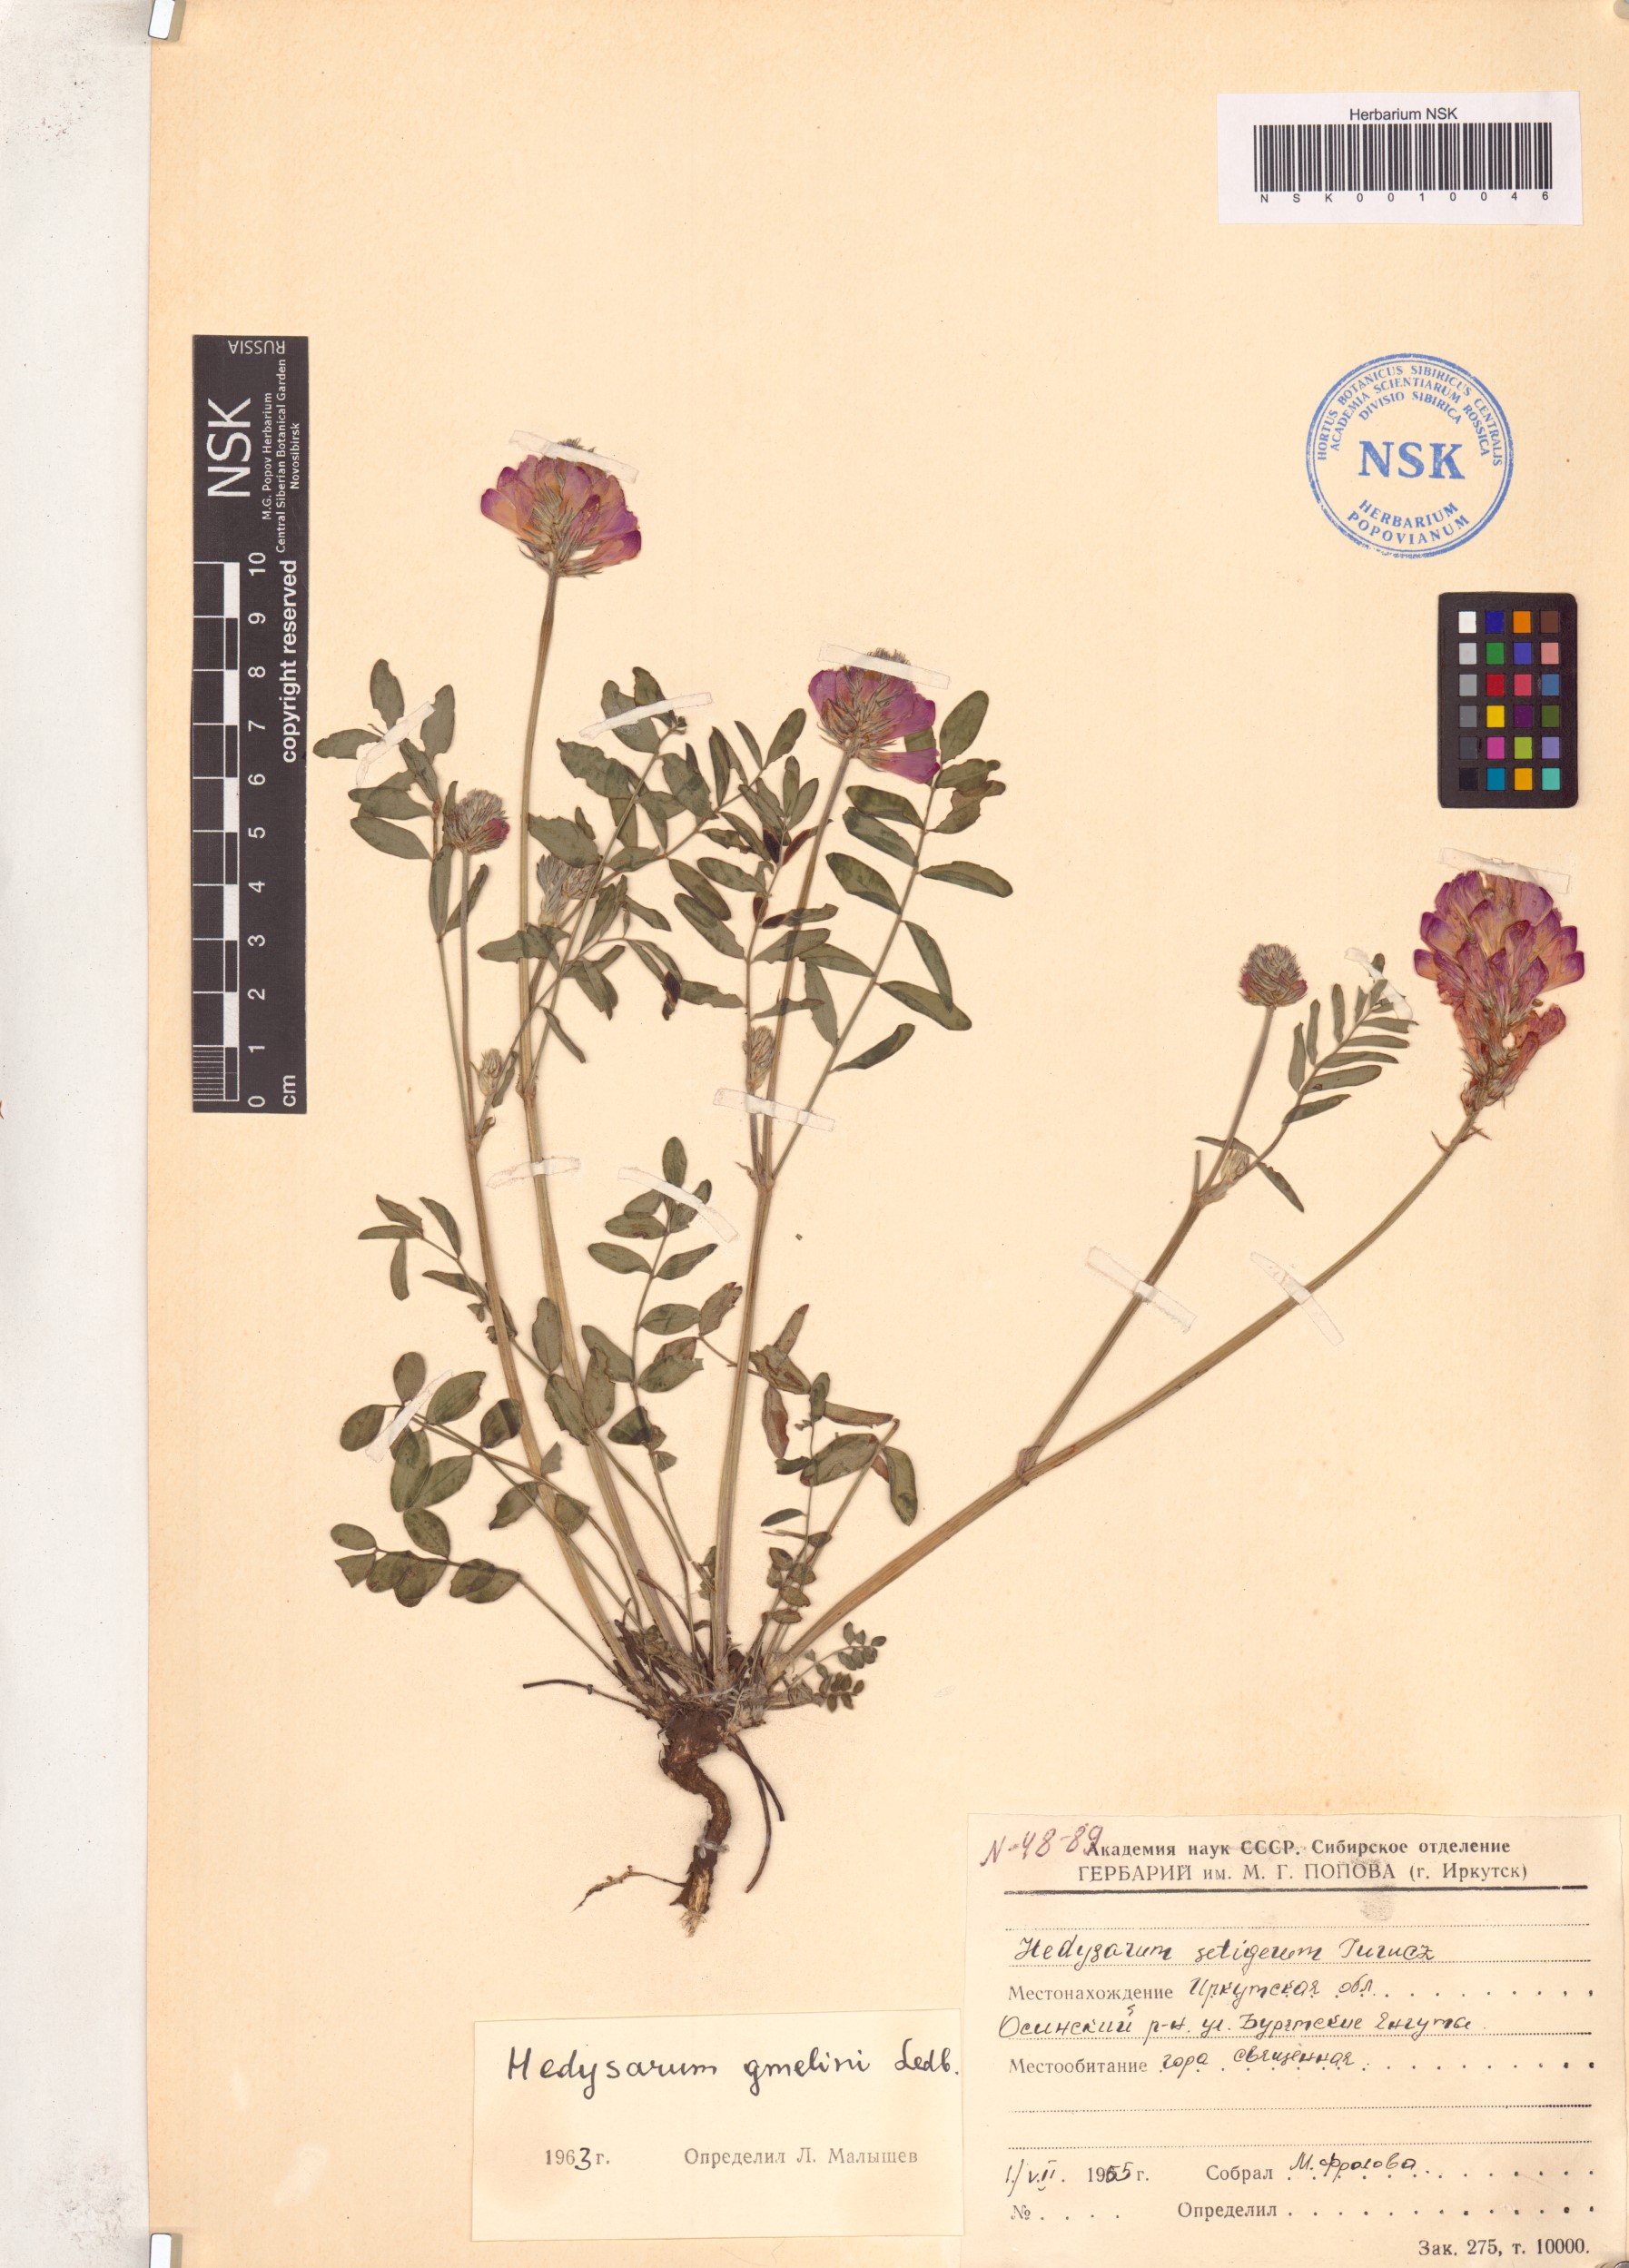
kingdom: Plantae
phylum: Tracheophyta
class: Magnoliopsida
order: Fabales
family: Fabaceae
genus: Hedysarum
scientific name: Hedysarum gmelinii
